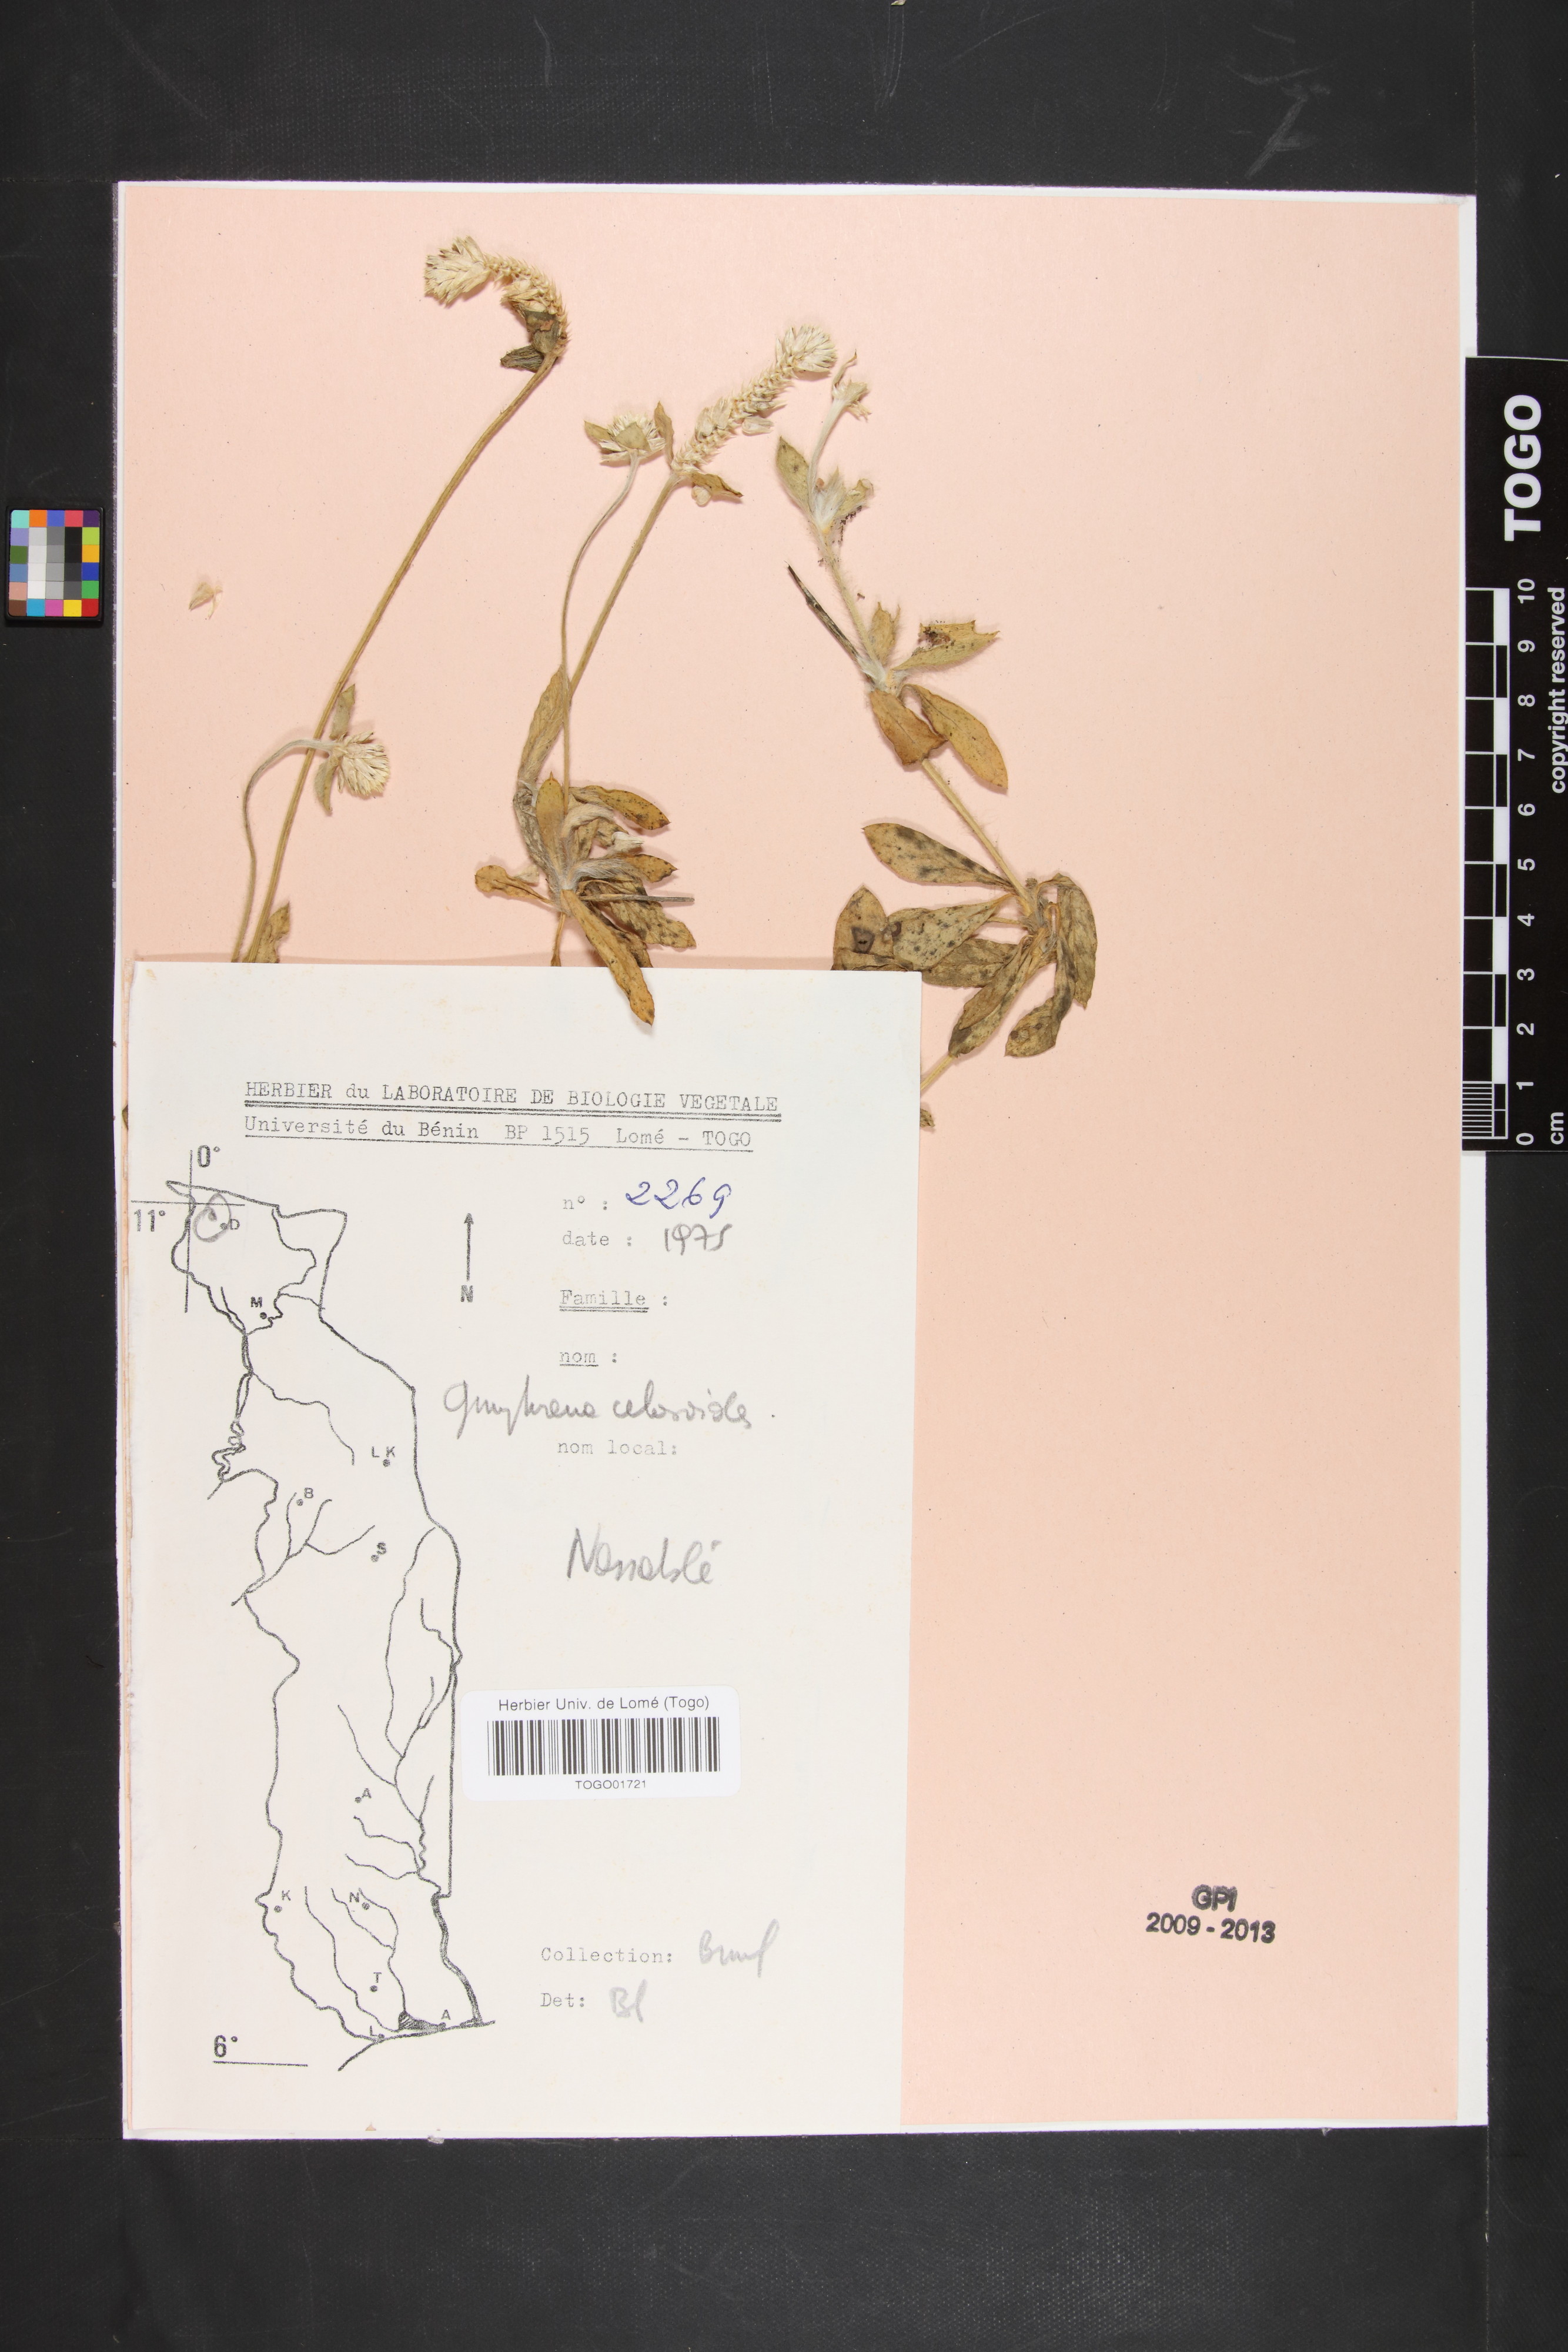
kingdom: Plantae
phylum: Tracheophyta
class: Magnoliopsida
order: Caryophyllales
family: Amaranthaceae
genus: Gomphrena
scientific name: Gomphrena celosioides
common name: Gomphrena-weed
